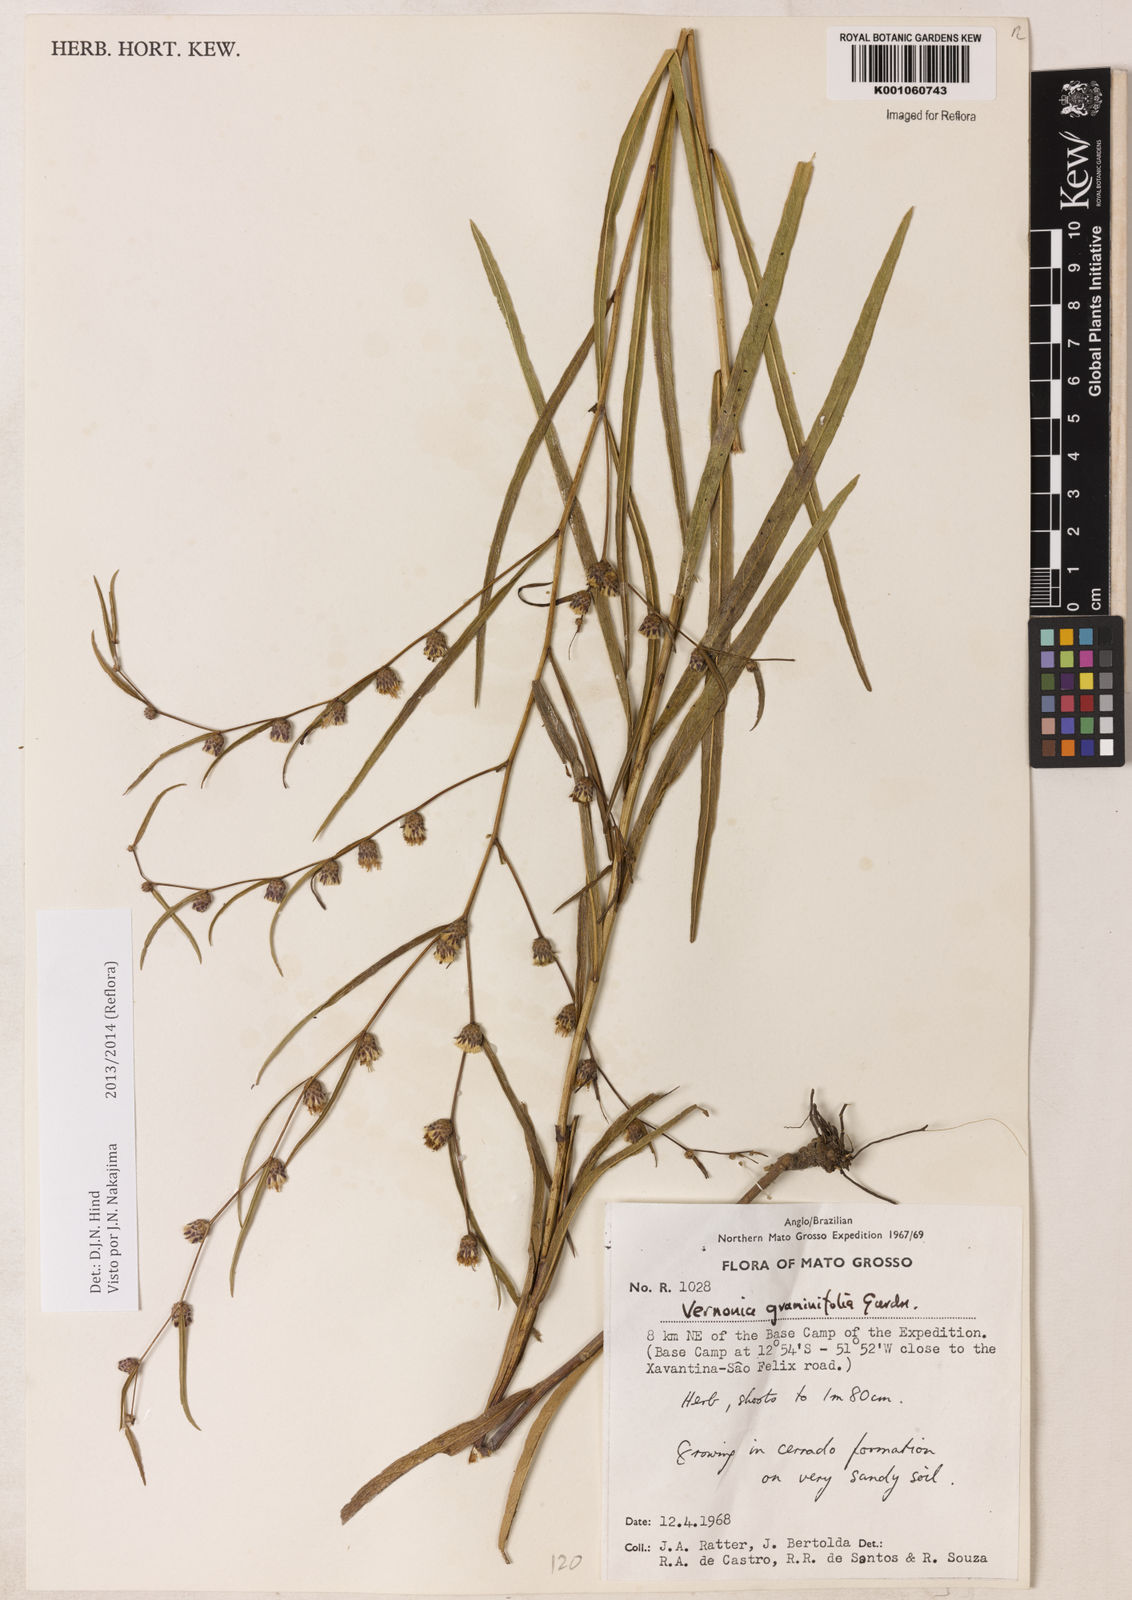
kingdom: Plantae
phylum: Tracheophyta
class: Magnoliopsida
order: Asterales
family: Asteraceae
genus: Lessingianthus
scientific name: Lessingianthus graminifolius
